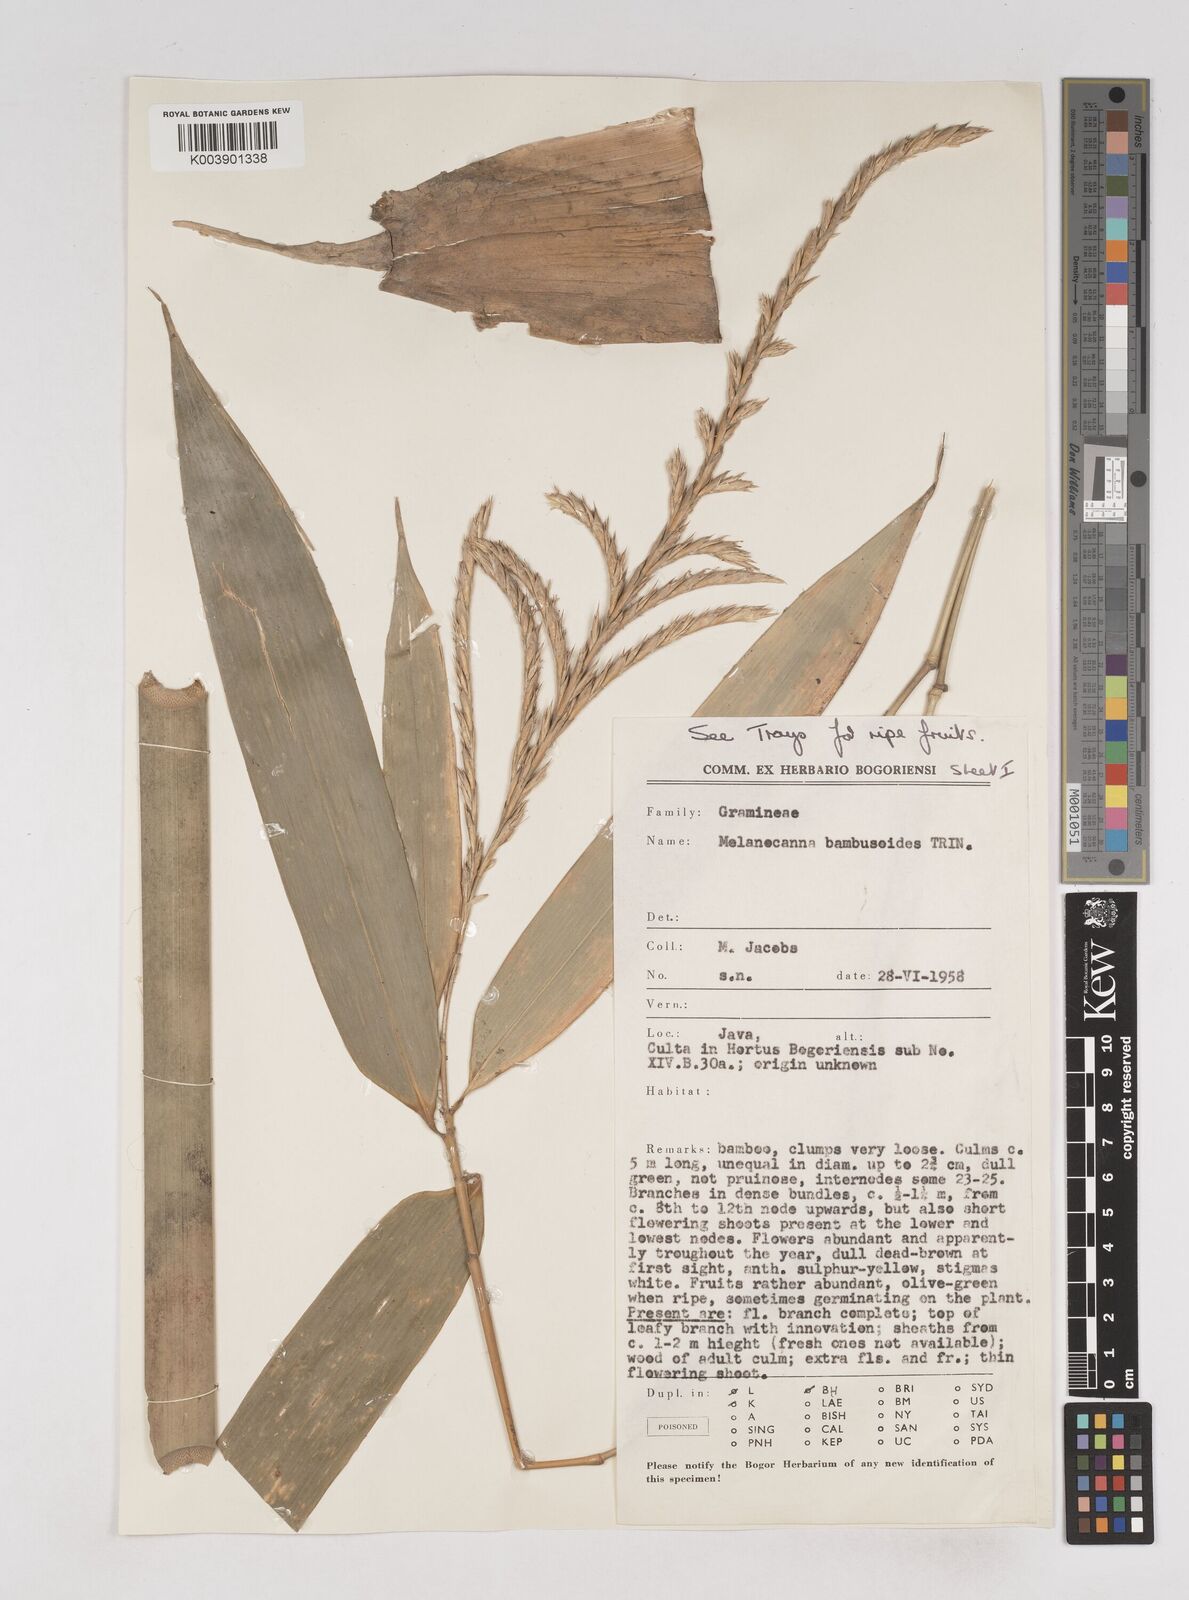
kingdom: Plantae
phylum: Tracheophyta
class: Liliopsida
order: Poales
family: Poaceae
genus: Melocanna
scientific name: Melocanna baccifera
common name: Berry bamboo
